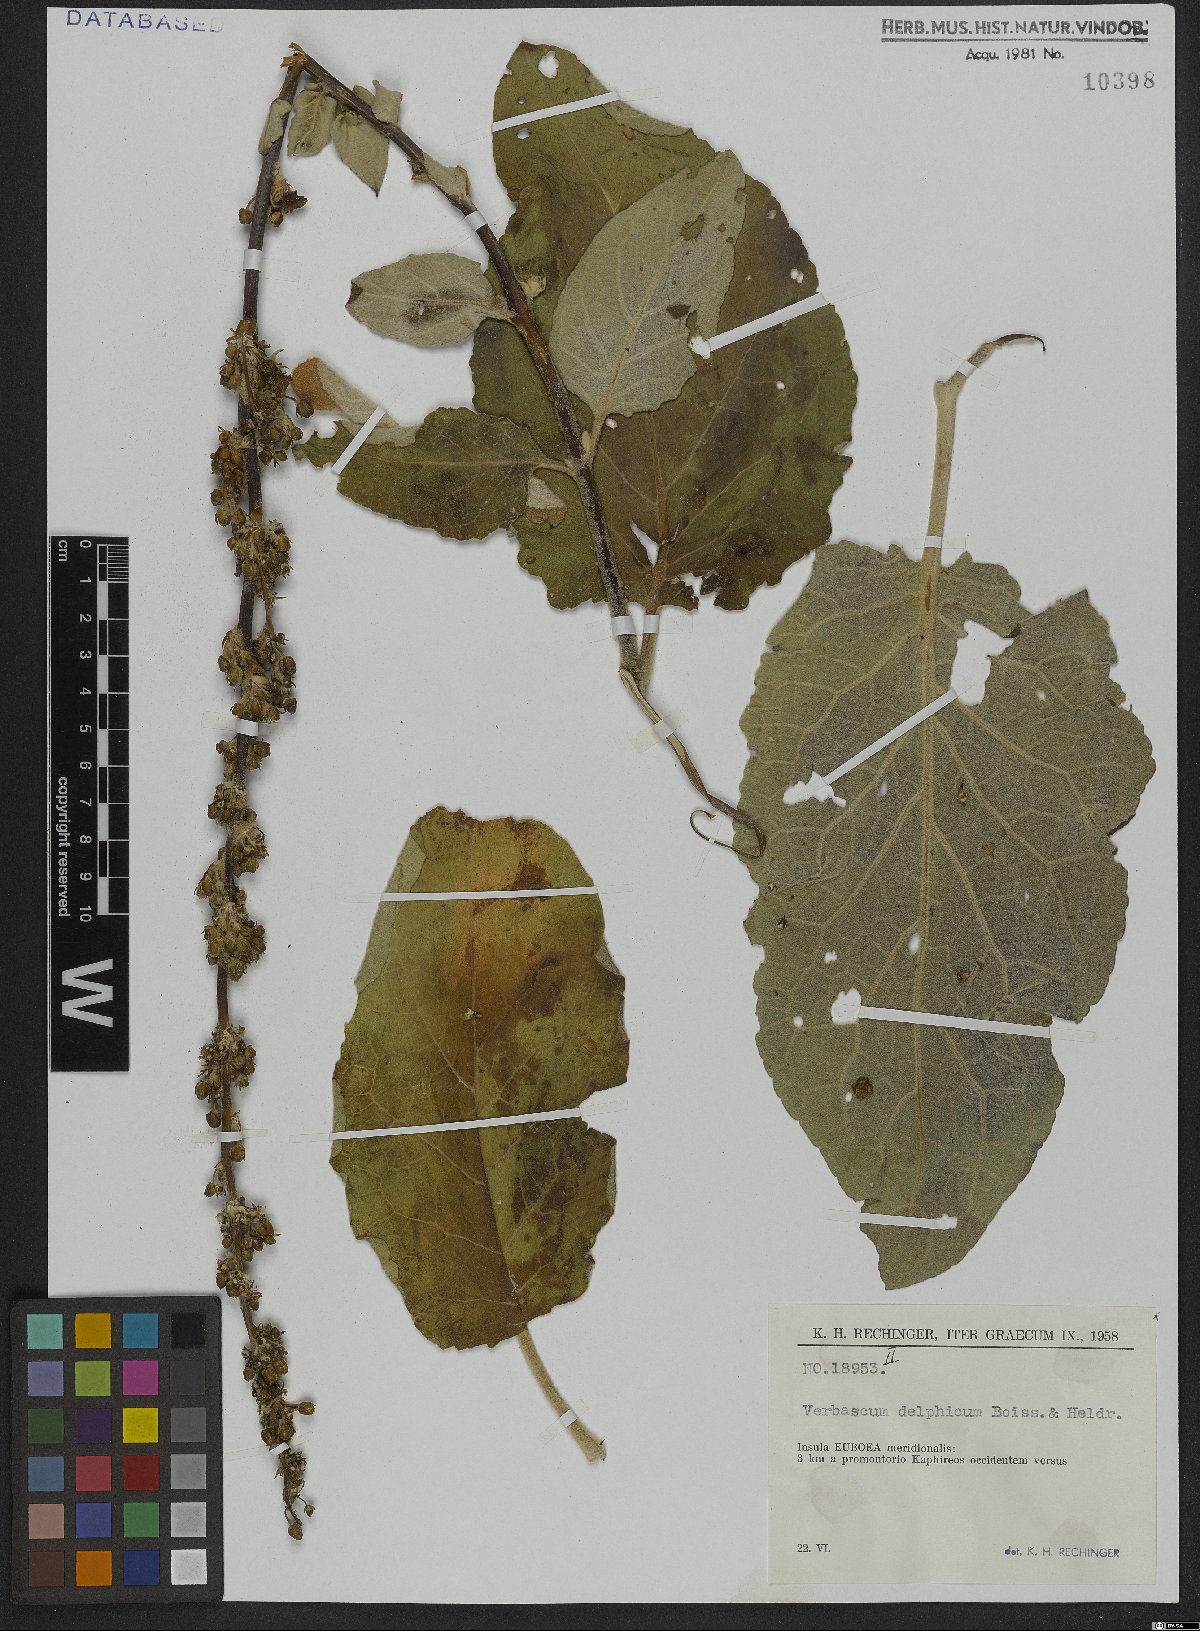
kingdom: Plantae
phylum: Tracheophyta
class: Magnoliopsida
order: Lamiales
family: Scrophulariaceae
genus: Verbascum
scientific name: Verbascum delphicum
